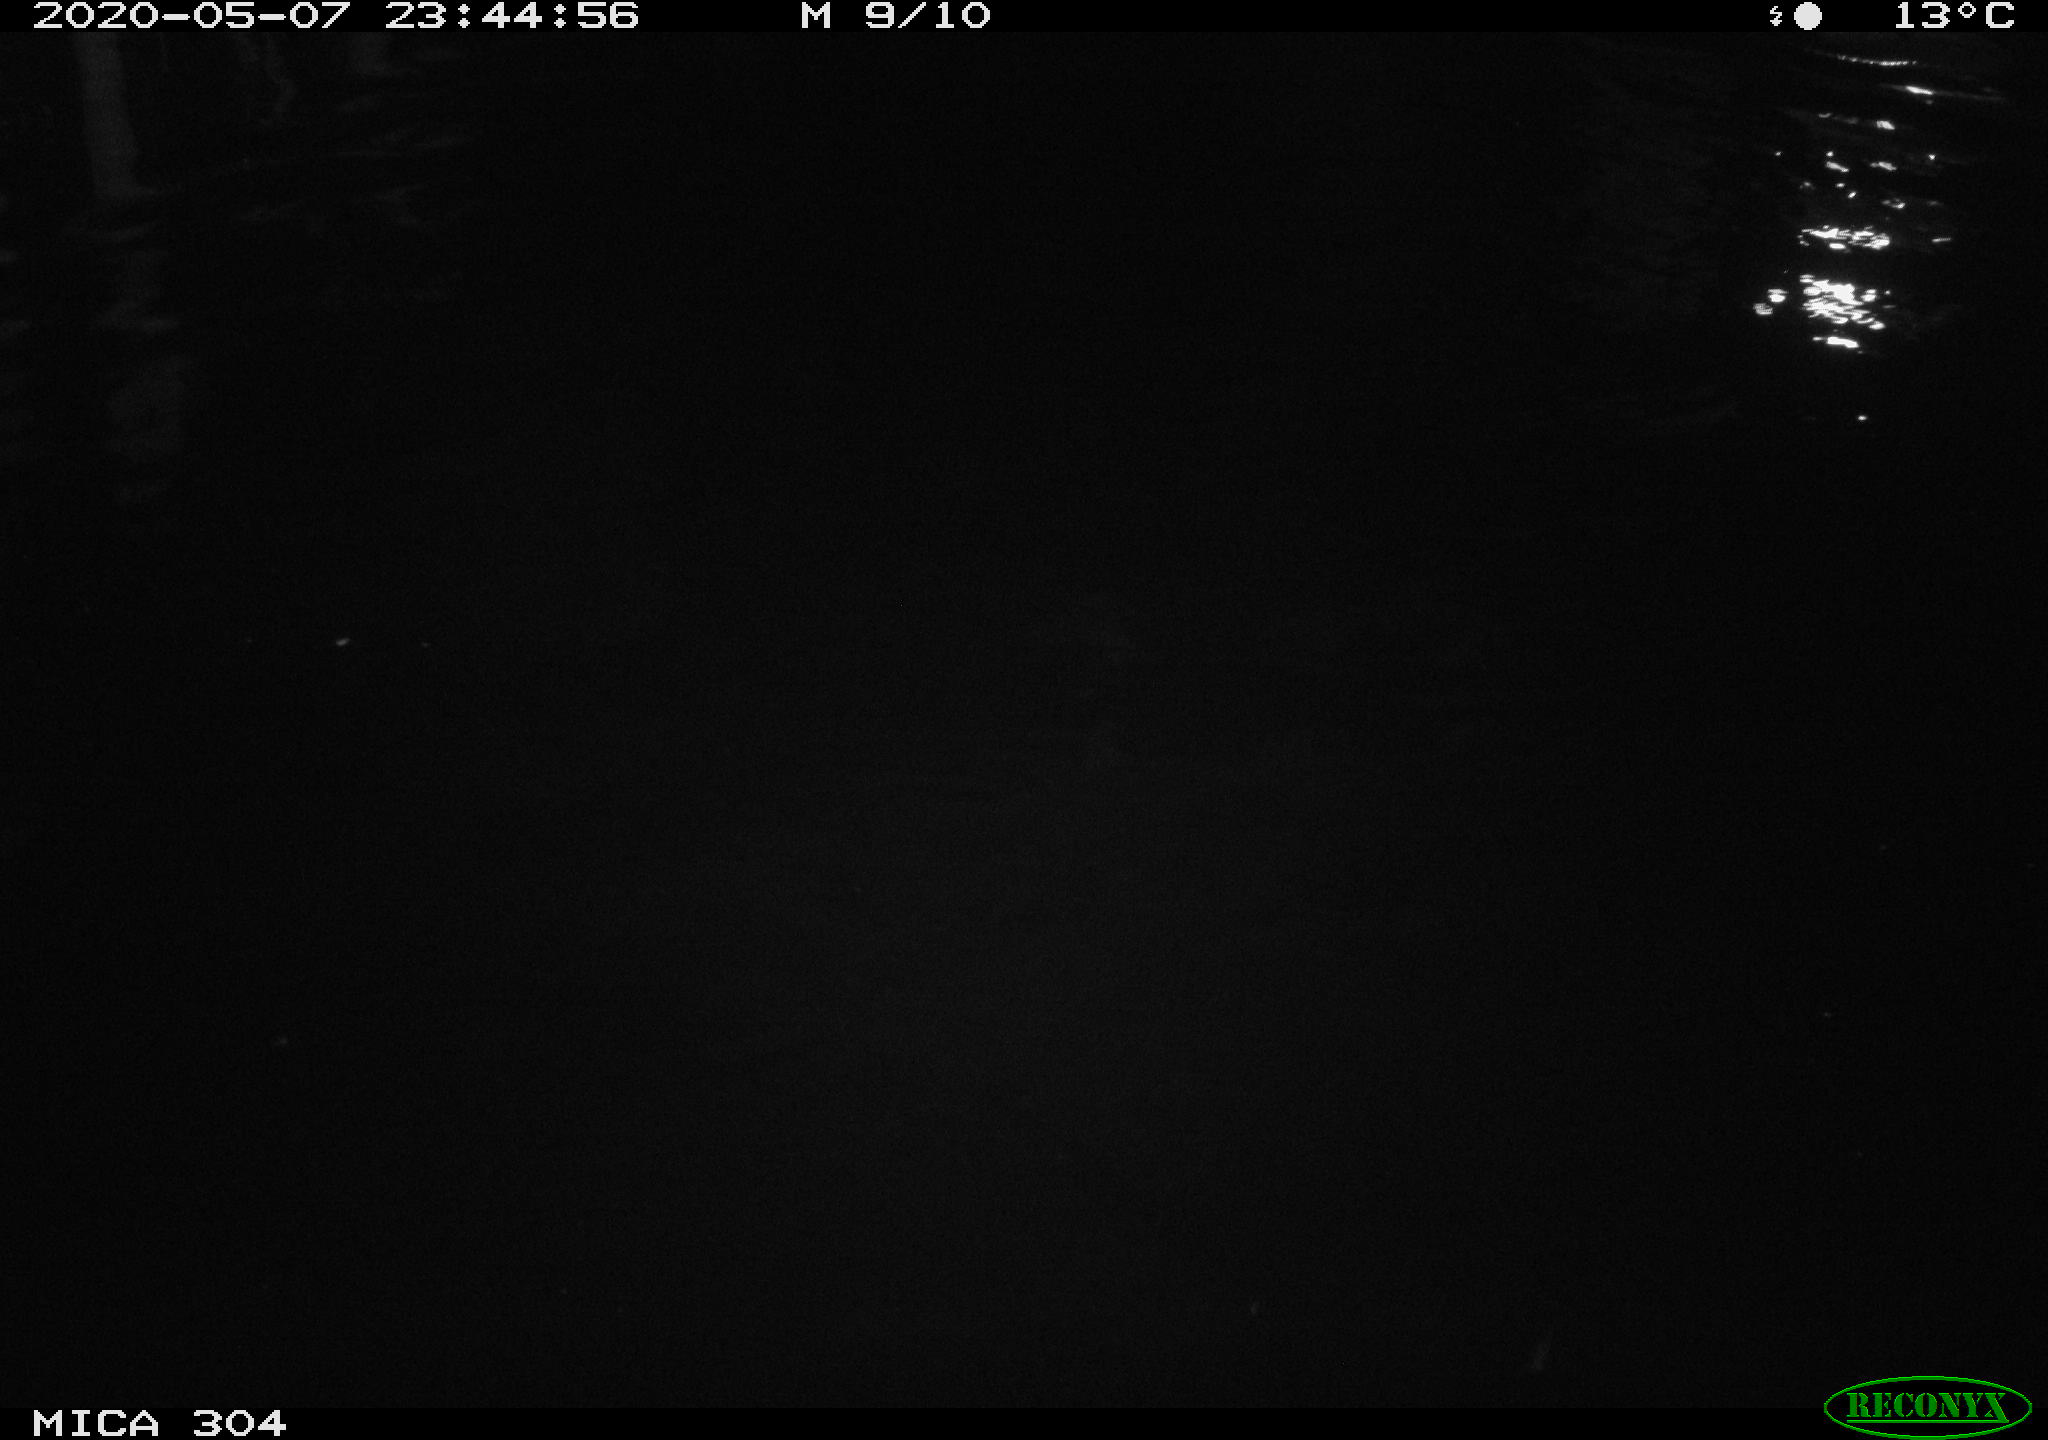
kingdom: Animalia
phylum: Chordata
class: Aves
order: Anseriformes
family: Anatidae
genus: Anas
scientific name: Anas platyrhynchos
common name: Mallard
